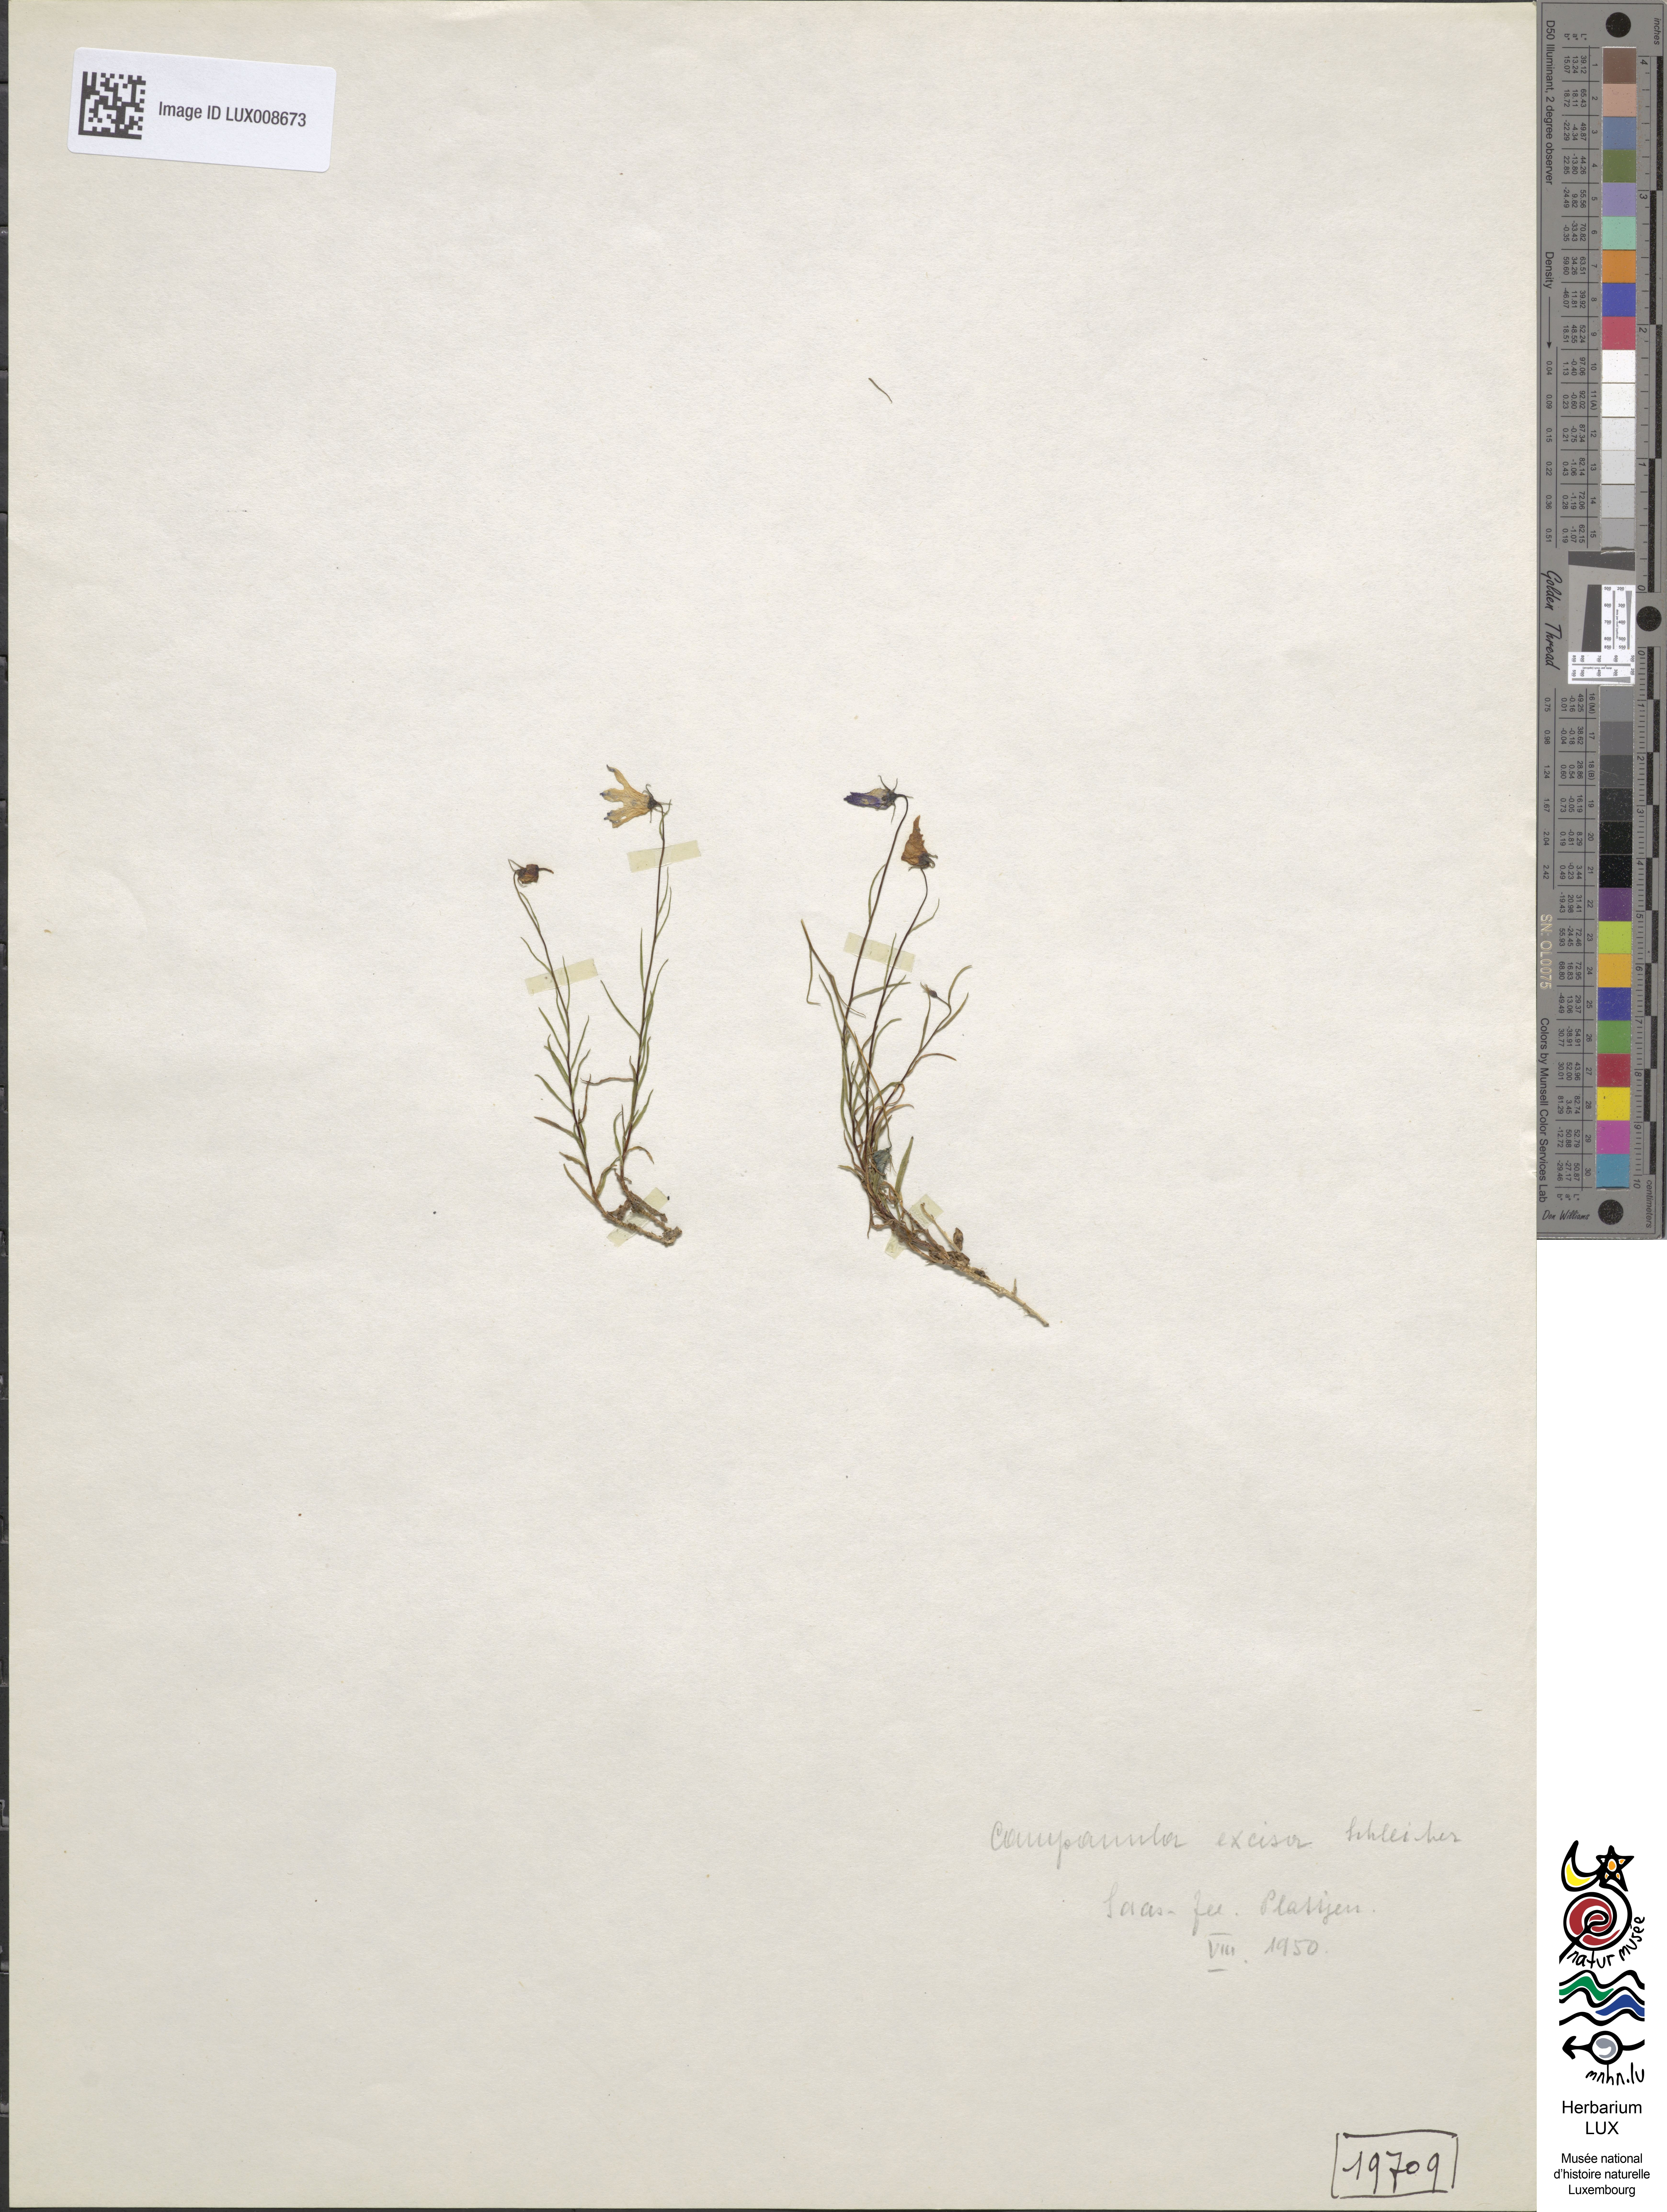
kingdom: Plantae
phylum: Tracheophyta
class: Magnoliopsida
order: Asterales
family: Campanulaceae
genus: Campanula
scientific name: Campanula excisa
